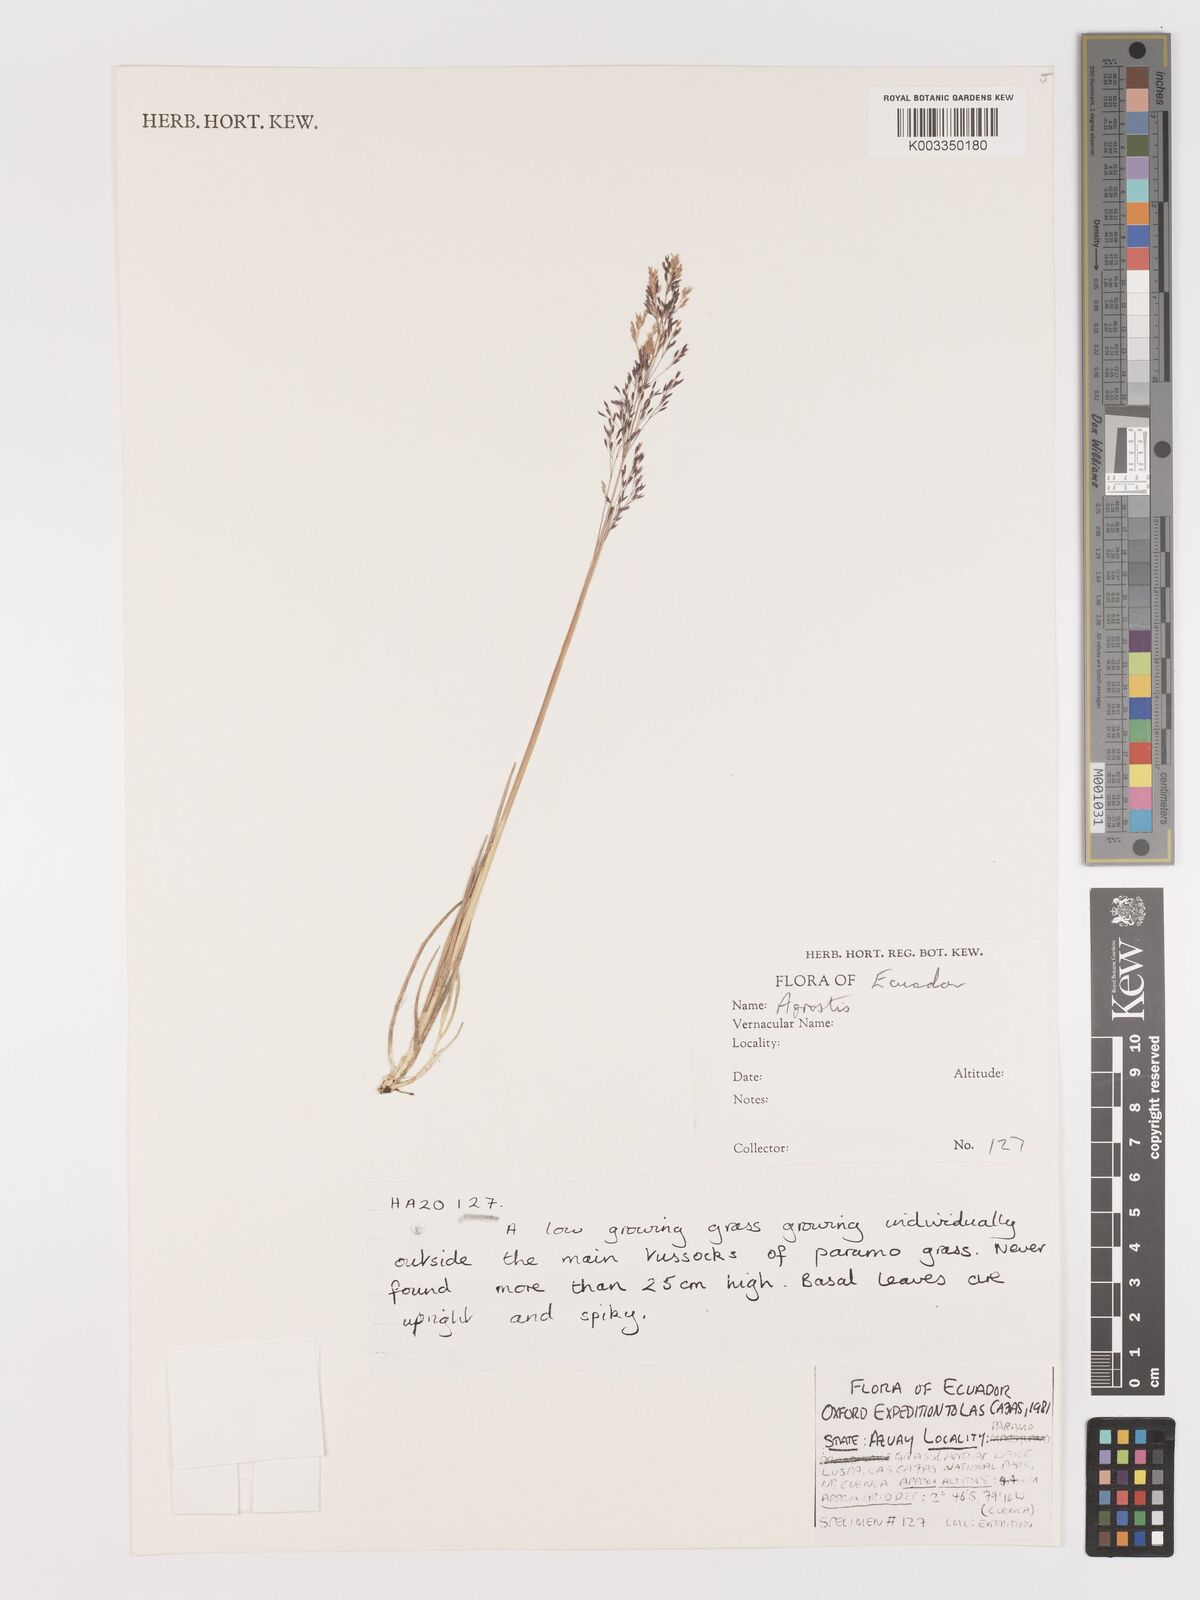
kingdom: Plantae
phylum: Tracheophyta
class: Liliopsida
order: Poales
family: Poaceae
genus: Agrostis
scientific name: Agrostis
